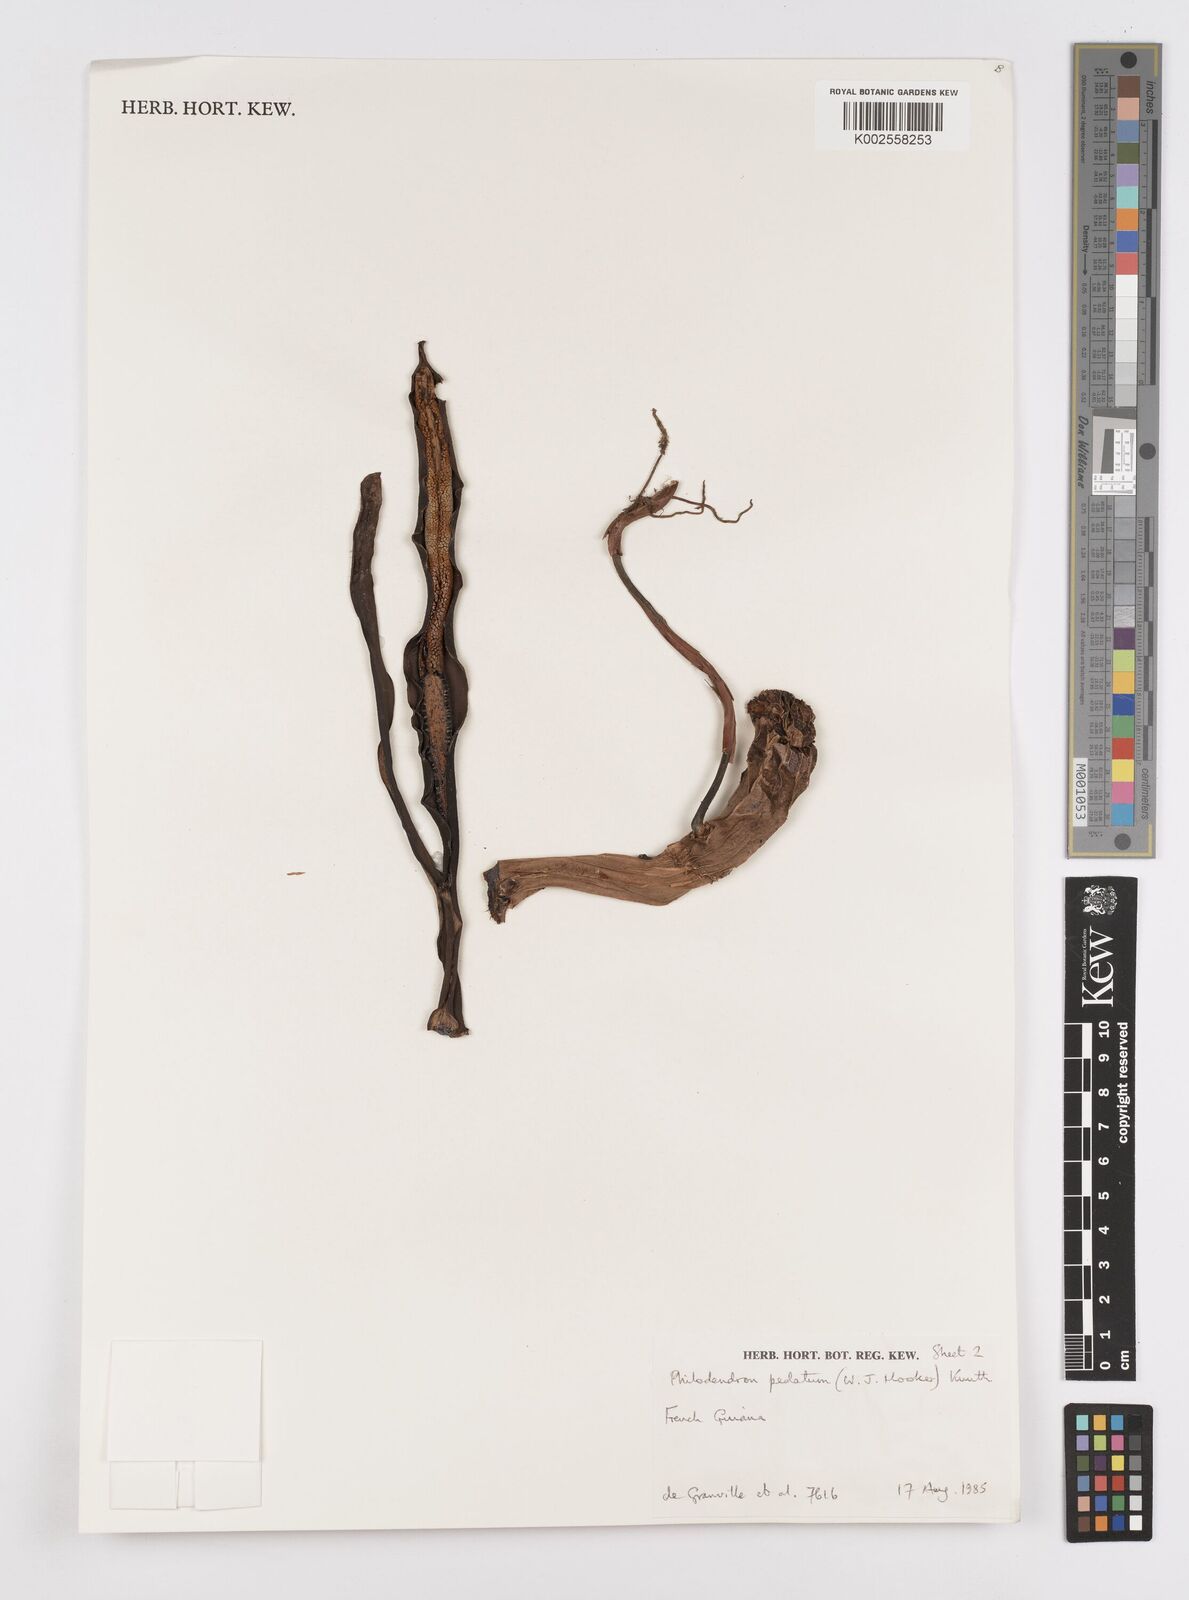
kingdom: Plantae
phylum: Tracheophyta
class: Liliopsida
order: Alismatales
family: Araceae
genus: Philodendron
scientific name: Philodendron pedatum
